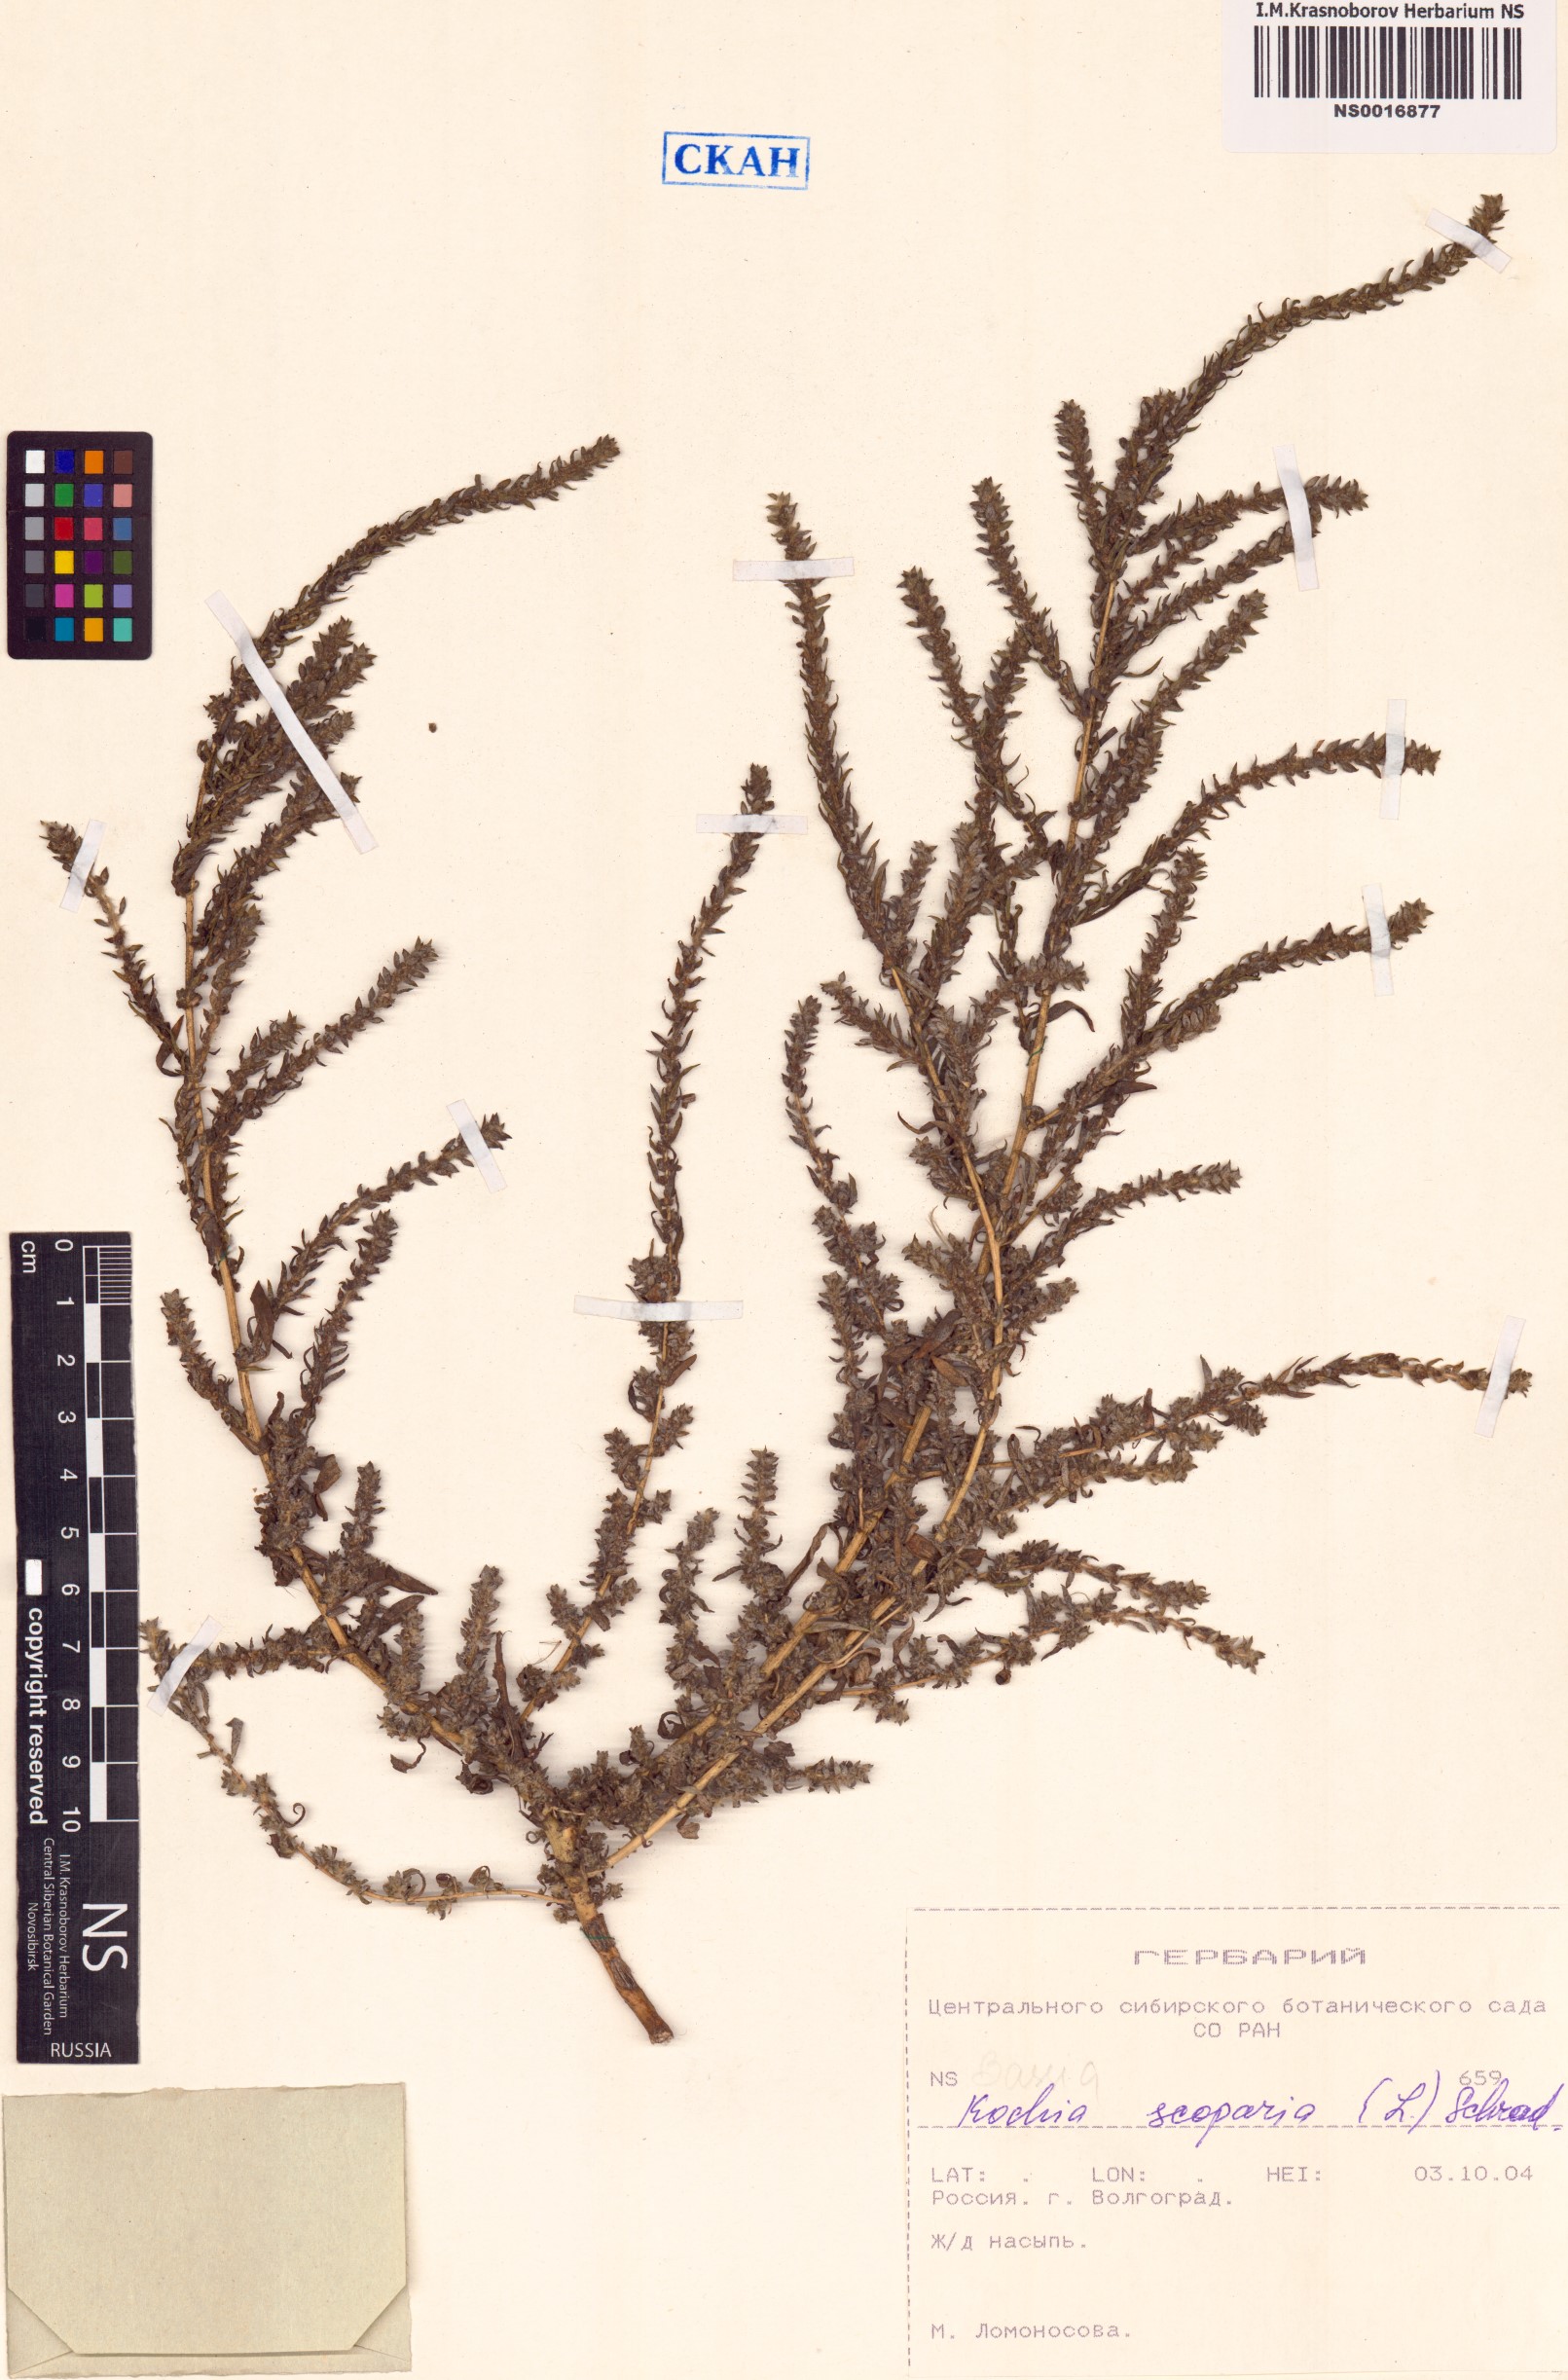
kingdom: Plantae
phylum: Tracheophyta
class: Magnoliopsida
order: Caryophyllales
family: Amaranthaceae
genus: Bassia
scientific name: Bassia scoparia
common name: Belvedere
